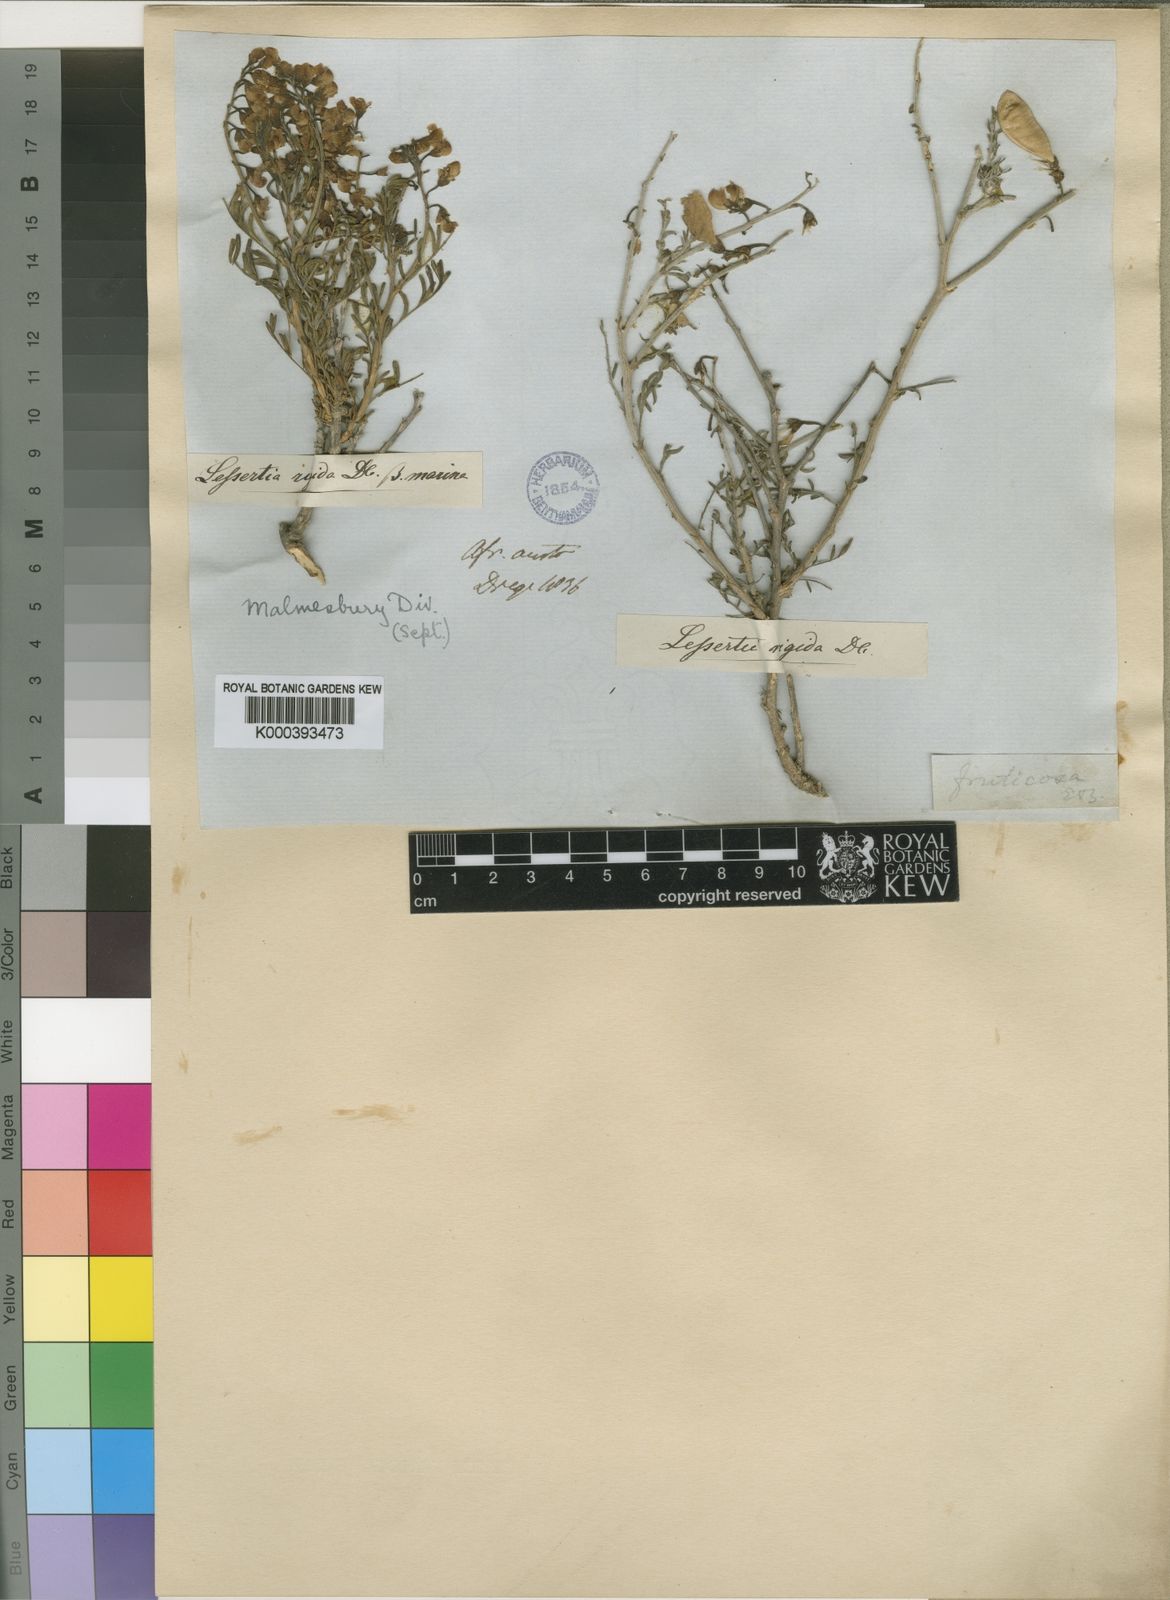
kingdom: Plantae
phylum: Tracheophyta
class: Magnoliopsida
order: Fabales
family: Fabaceae
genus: Lessertia
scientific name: Lessertia
